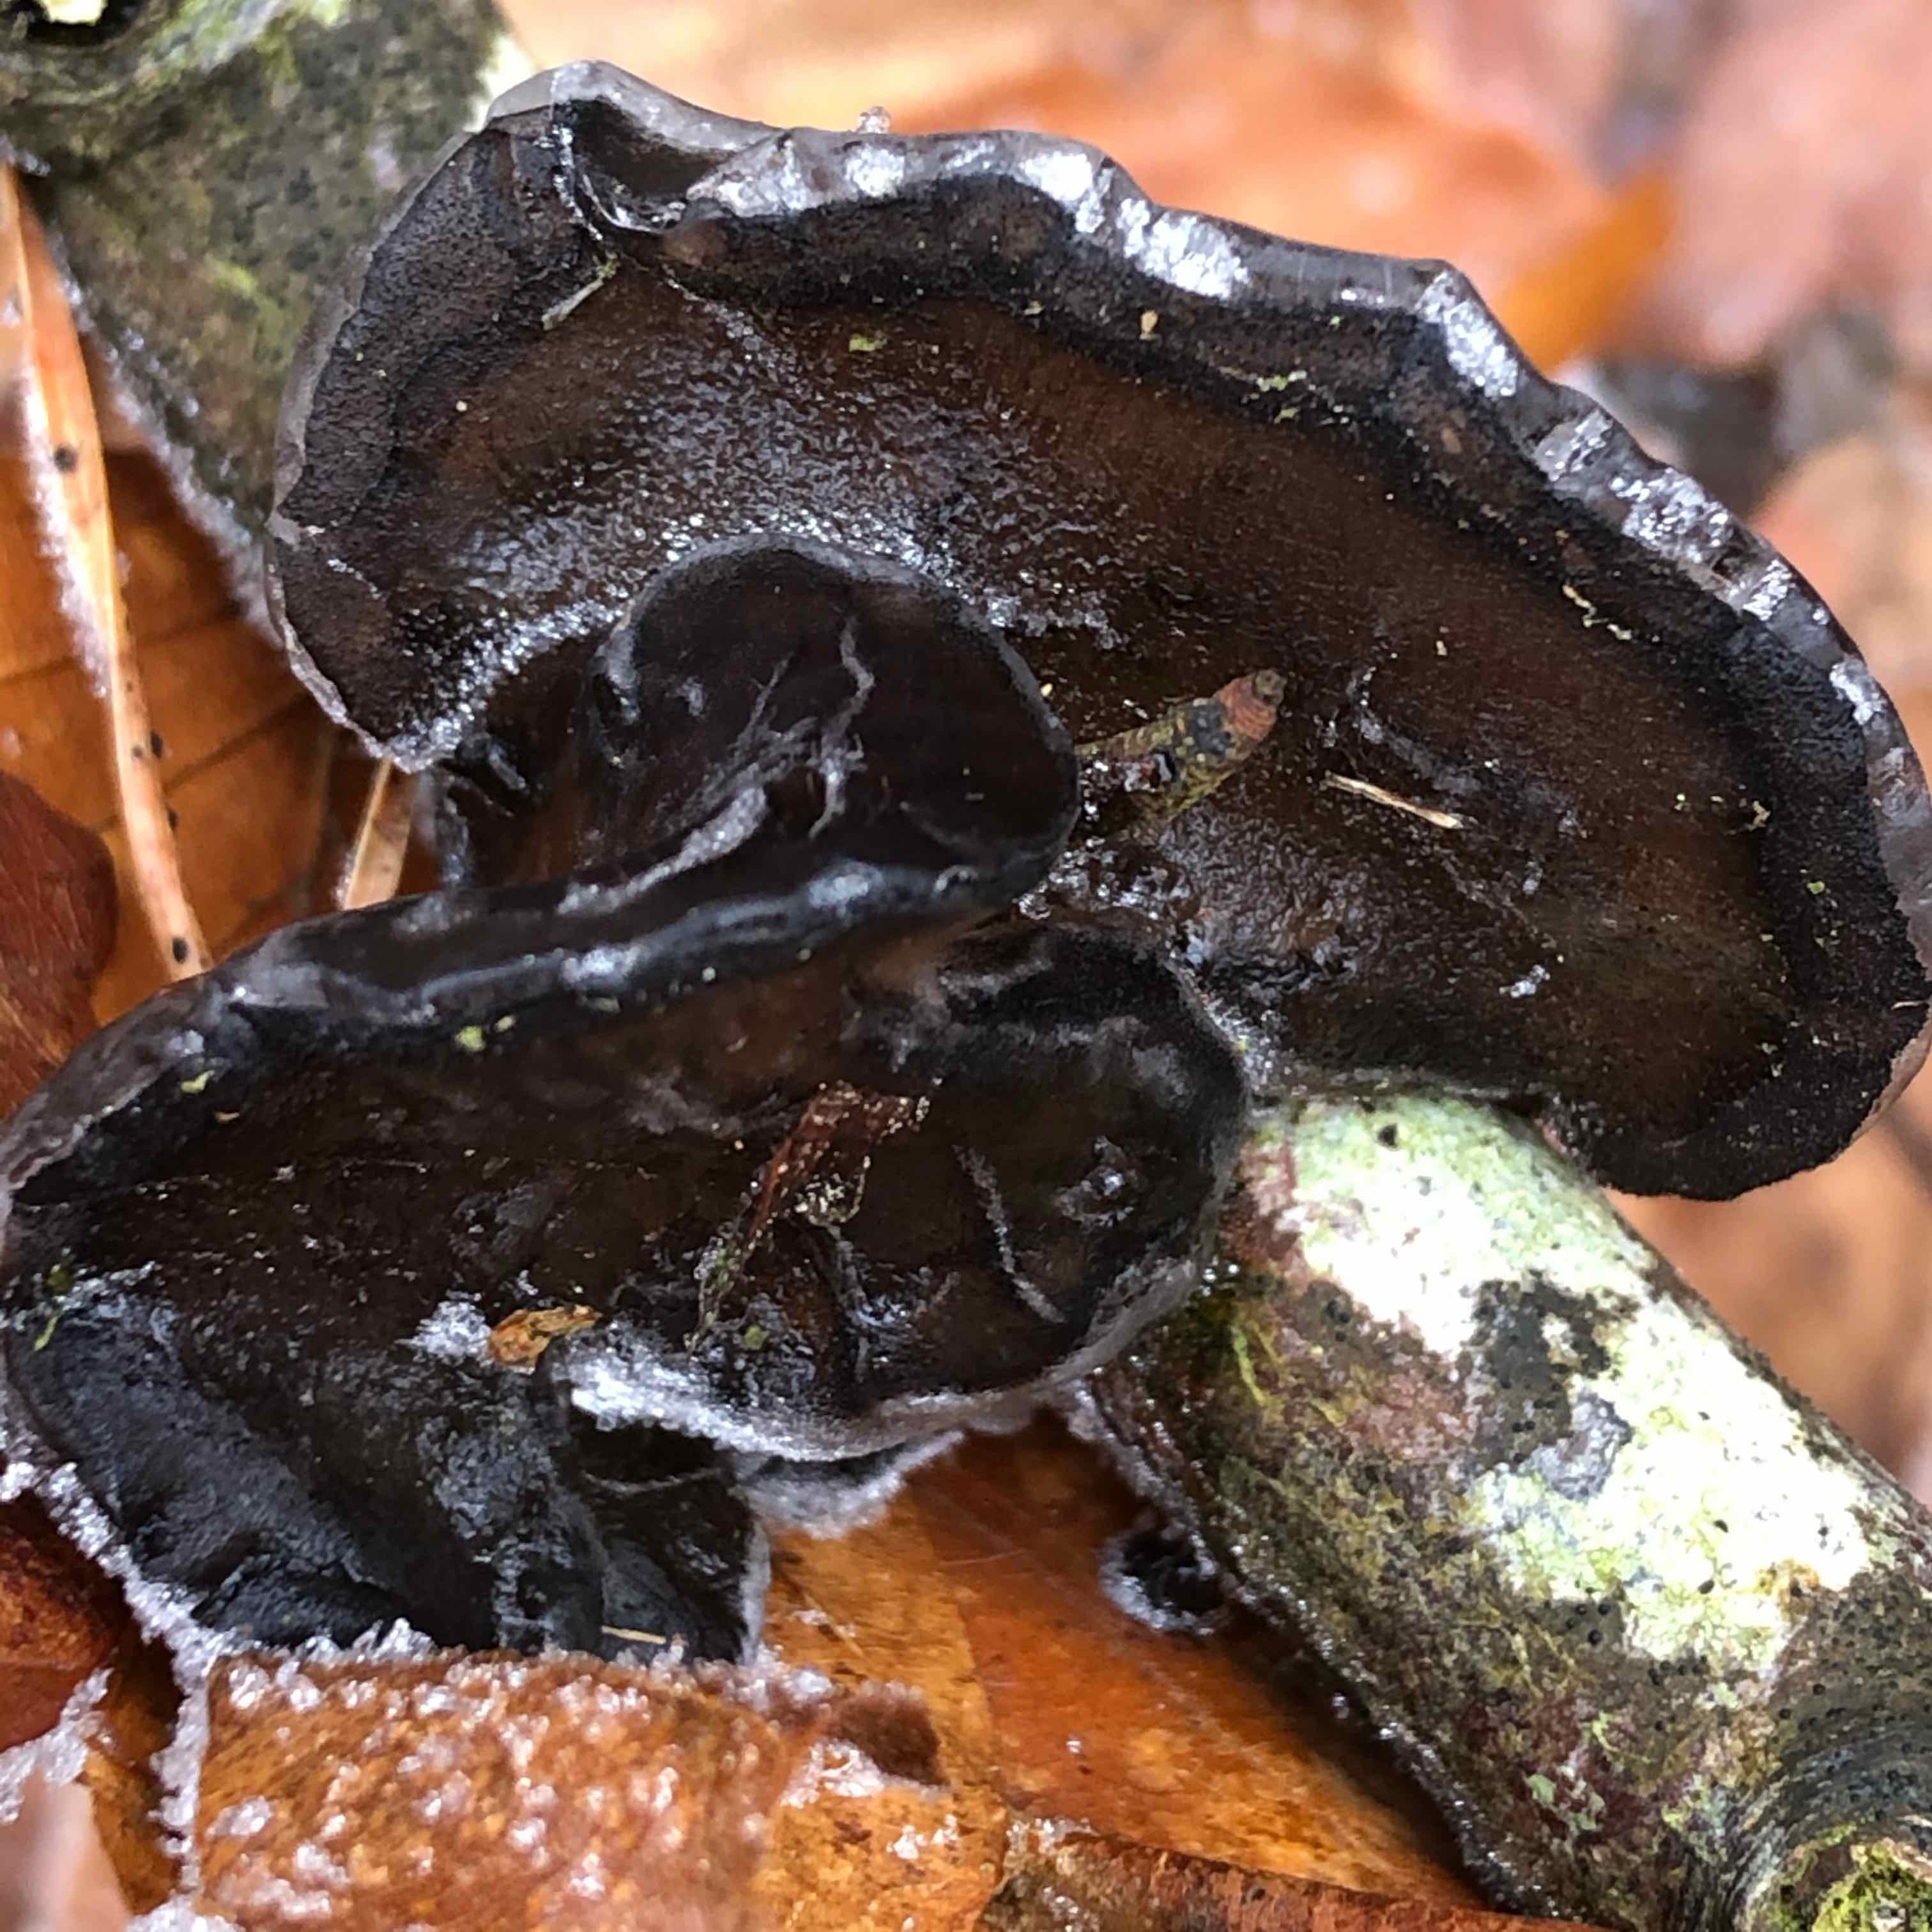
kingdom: Fungi
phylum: Basidiomycota
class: Agaricomycetes
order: Auriculariales
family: Auriculariaceae
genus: Exidia
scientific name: Exidia glandulosa
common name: ege-bævretop
